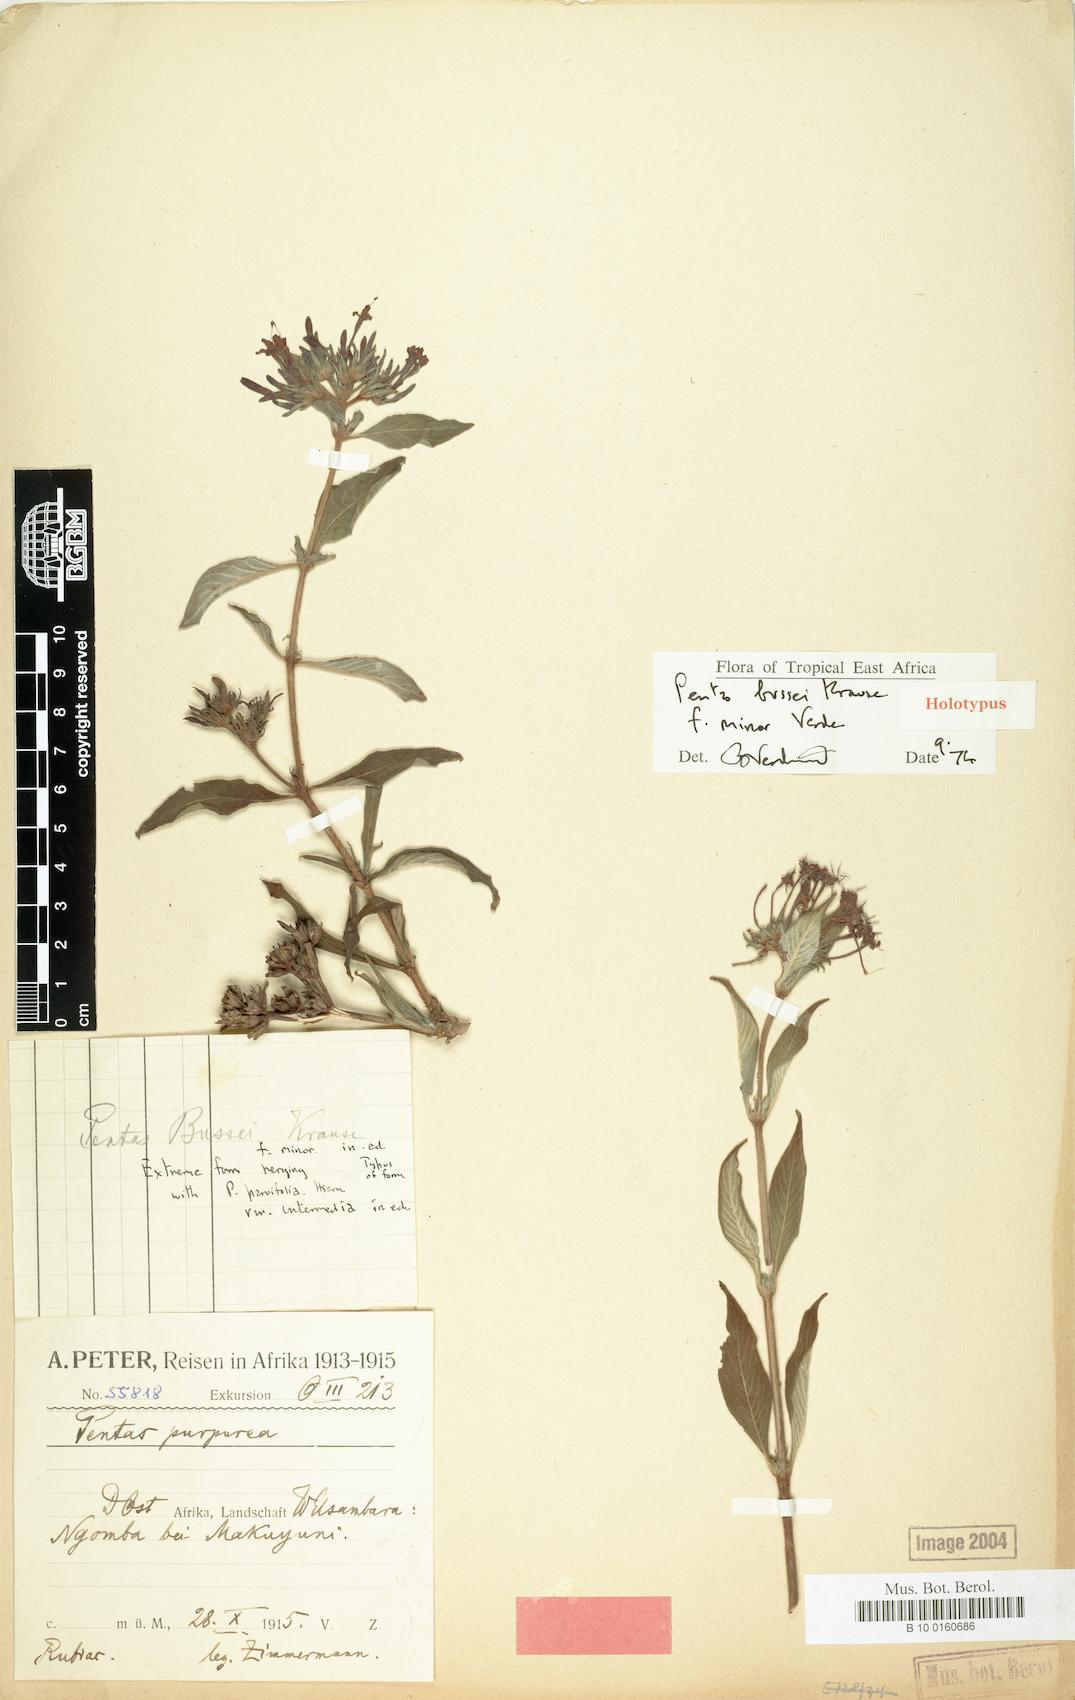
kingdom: Plantae
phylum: Tracheophyta
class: Magnoliopsida
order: Gentianales
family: Rubiaceae
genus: Rhodopentas
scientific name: Rhodopentas bussei
